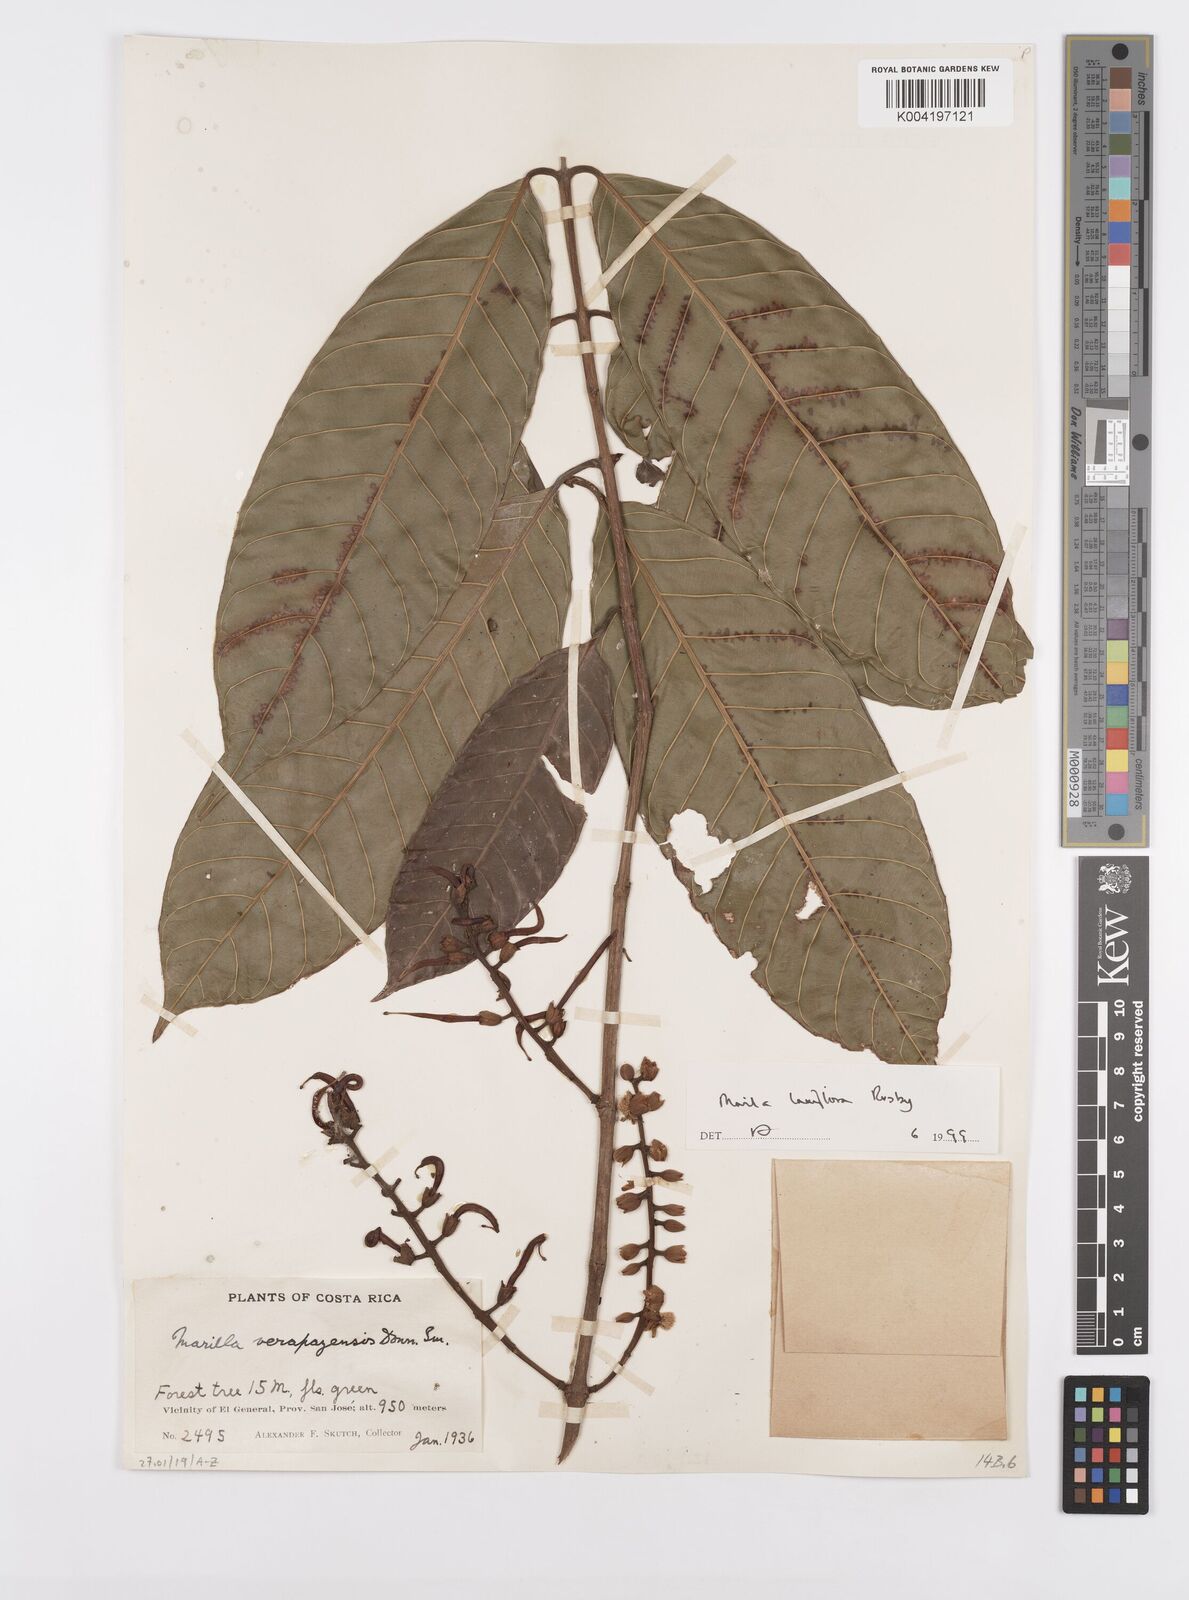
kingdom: Plantae
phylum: Tracheophyta
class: Magnoliopsida
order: Malpighiales
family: Calophyllaceae
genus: Marila
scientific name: Marila laxiflora
